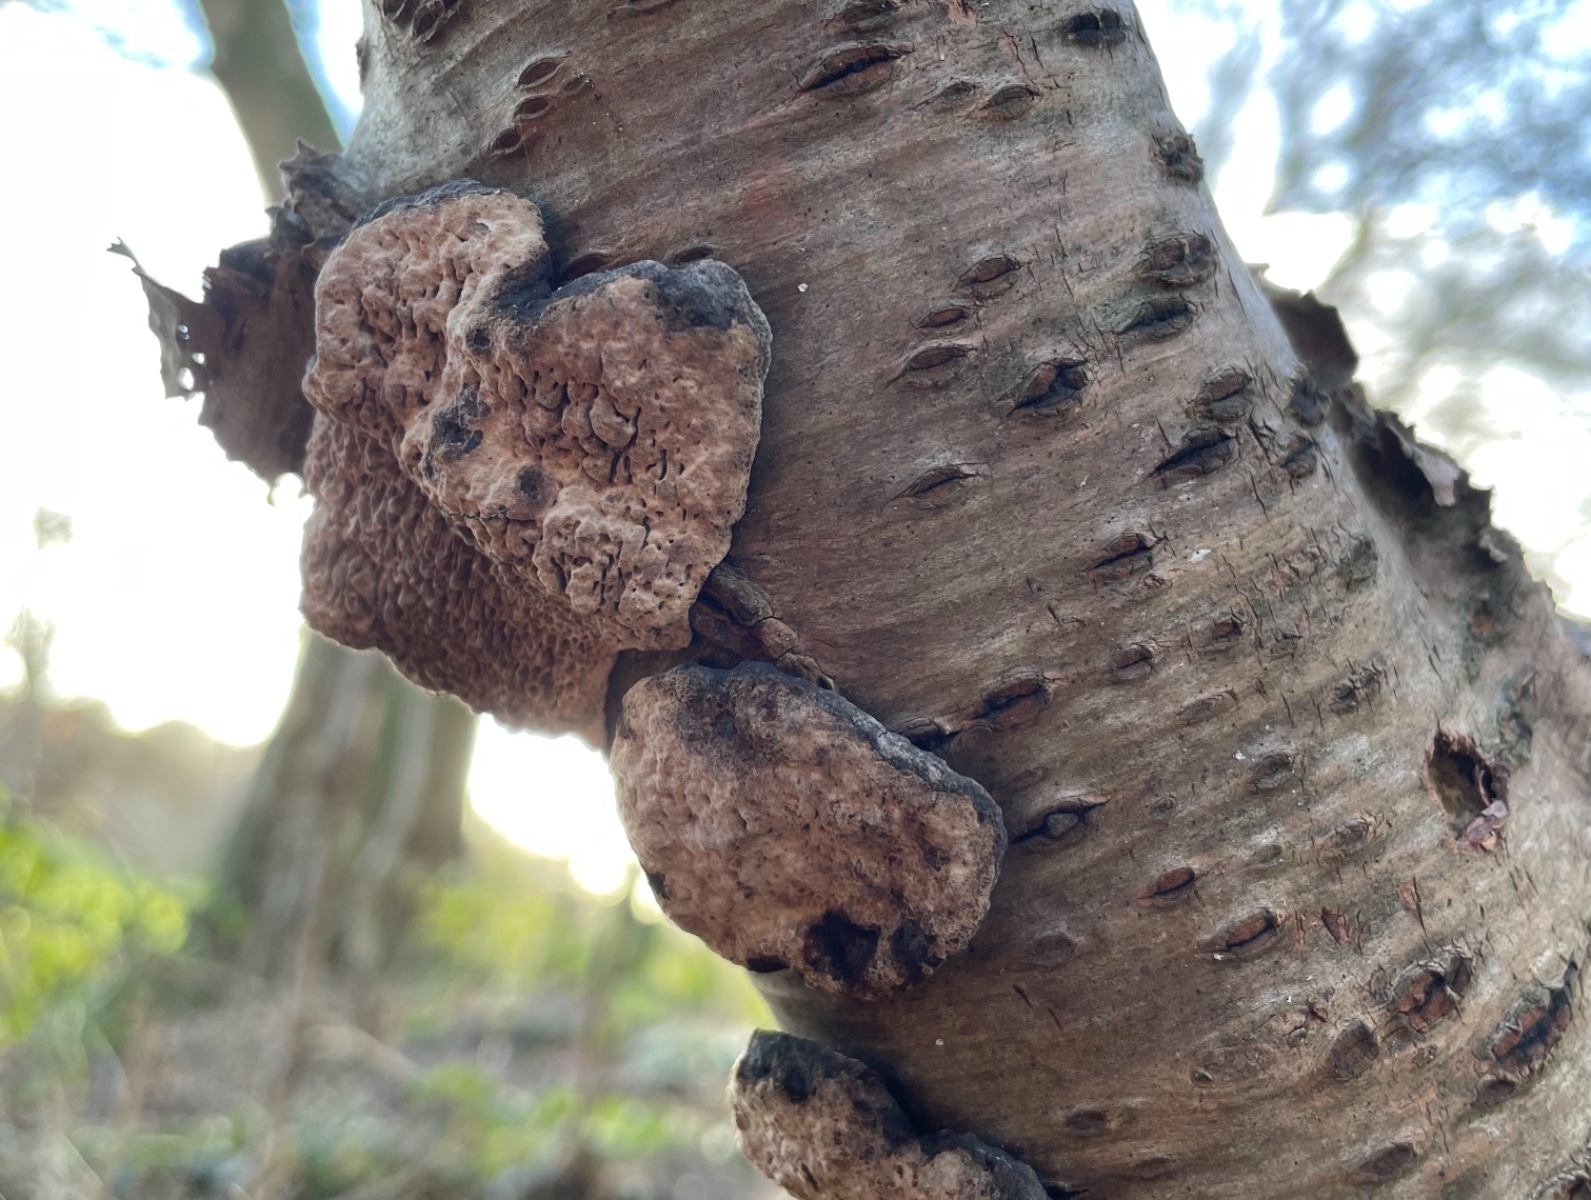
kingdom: Fungi
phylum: Basidiomycota
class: Agaricomycetes
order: Polyporales
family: Polyporaceae
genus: Podofomes
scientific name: Podofomes mollis
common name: blød begporesvamp
